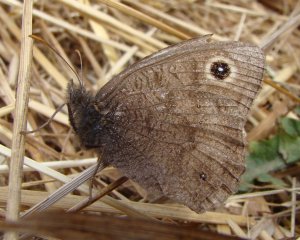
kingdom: Animalia
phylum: Arthropoda
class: Insecta
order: Lepidoptera
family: Nymphalidae
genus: Cercyonis
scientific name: Cercyonis pegala
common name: Common Wood-Nymph
